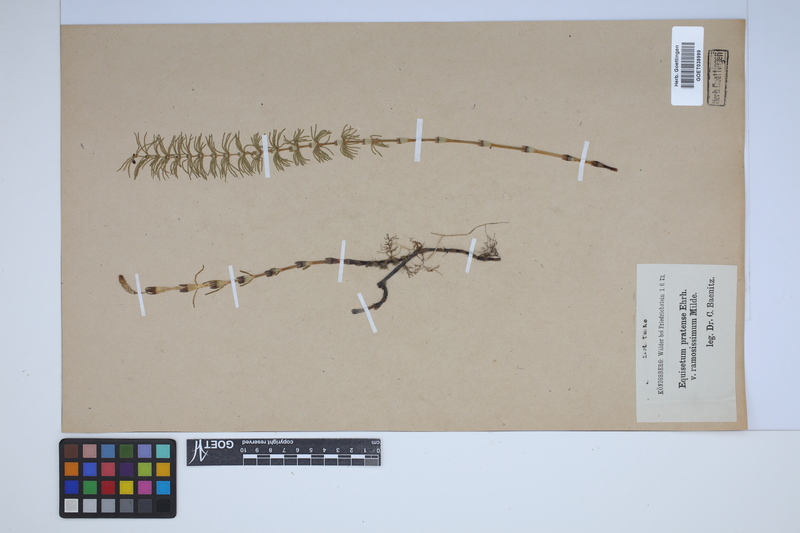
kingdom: Plantae
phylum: Tracheophyta
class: Polypodiopsida
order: Equisetales
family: Equisetaceae
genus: Equisetum
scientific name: Equisetum pratense
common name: Meadow horsetail
